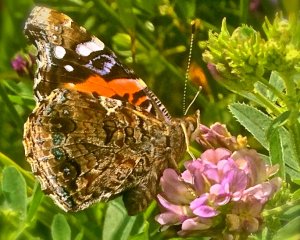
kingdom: Animalia
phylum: Arthropoda
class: Insecta
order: Lepidoptera
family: Nymphalidae
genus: Vanessa
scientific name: Vanessa atalanta
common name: Red Admiral
